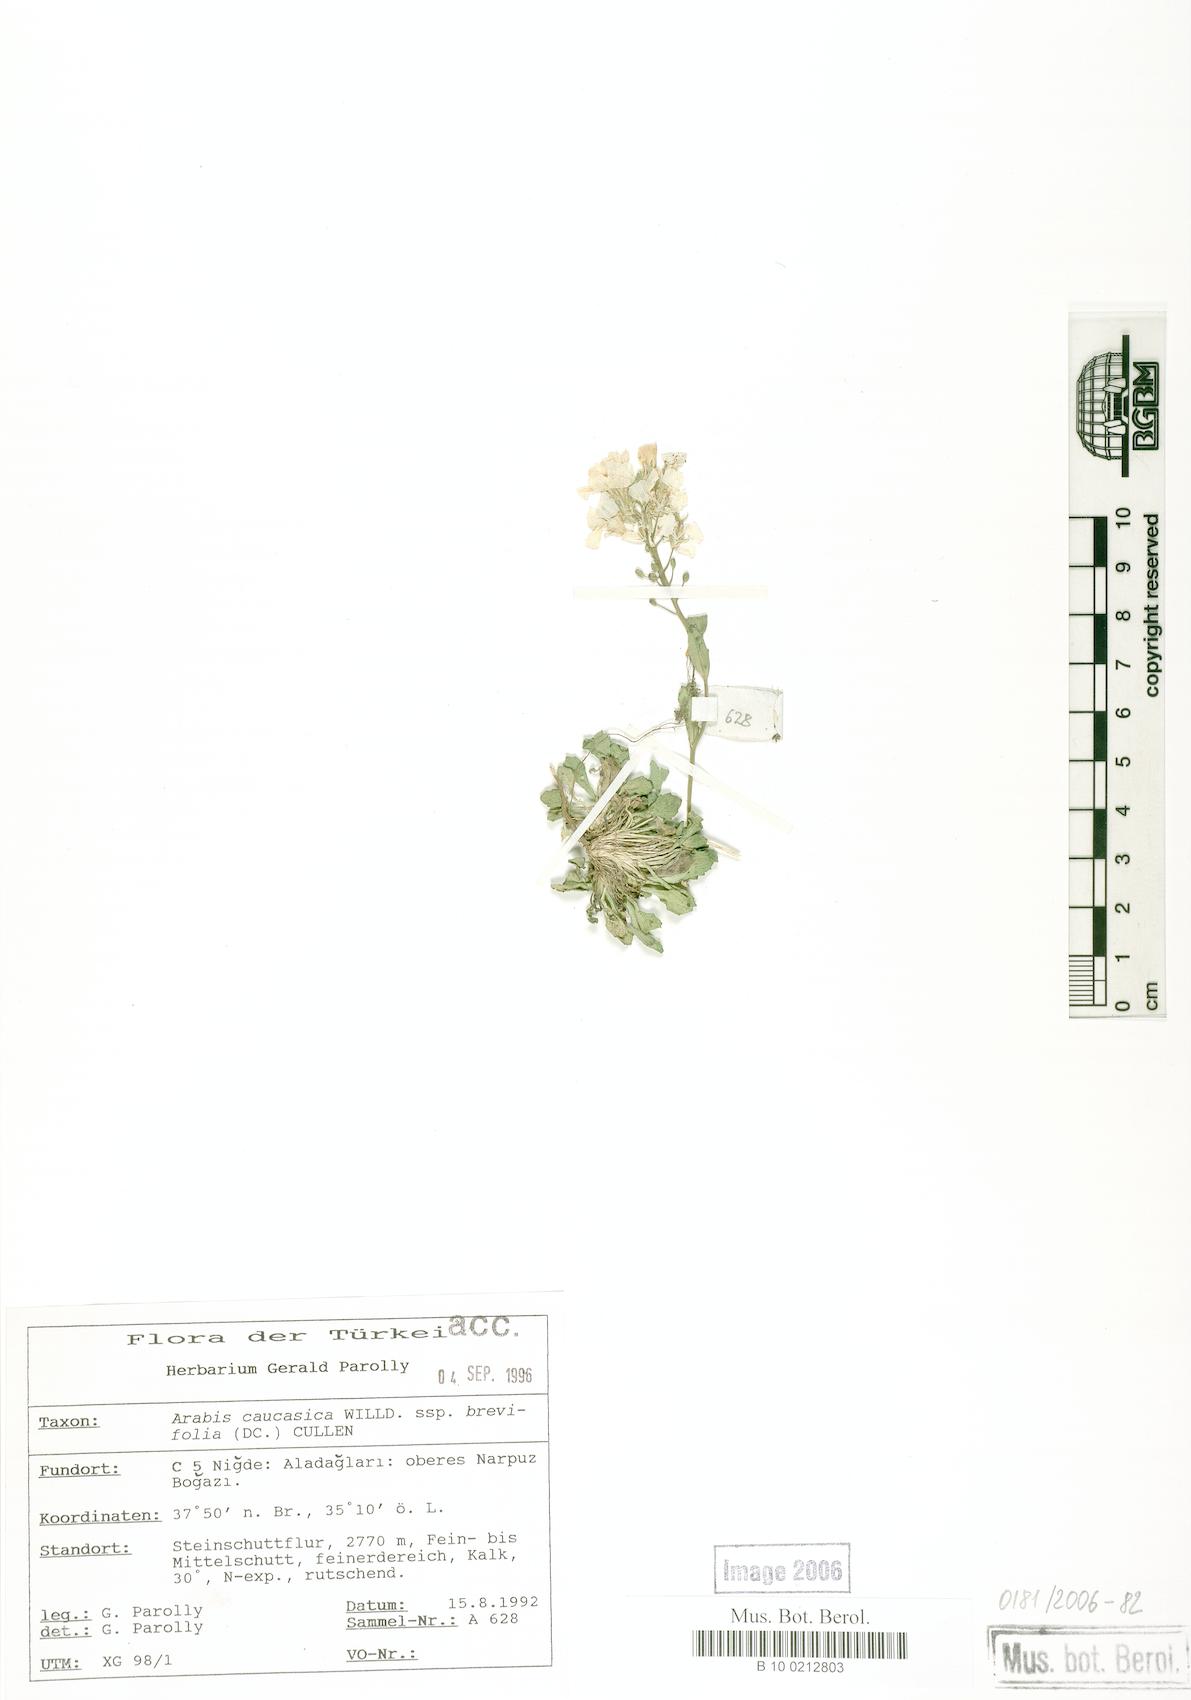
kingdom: Plantae
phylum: Tracheophyta
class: Magnoliopsida
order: Brassicales
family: Brassicaceae
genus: Arabis
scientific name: Arabis caucasica
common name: Gray rockcress
